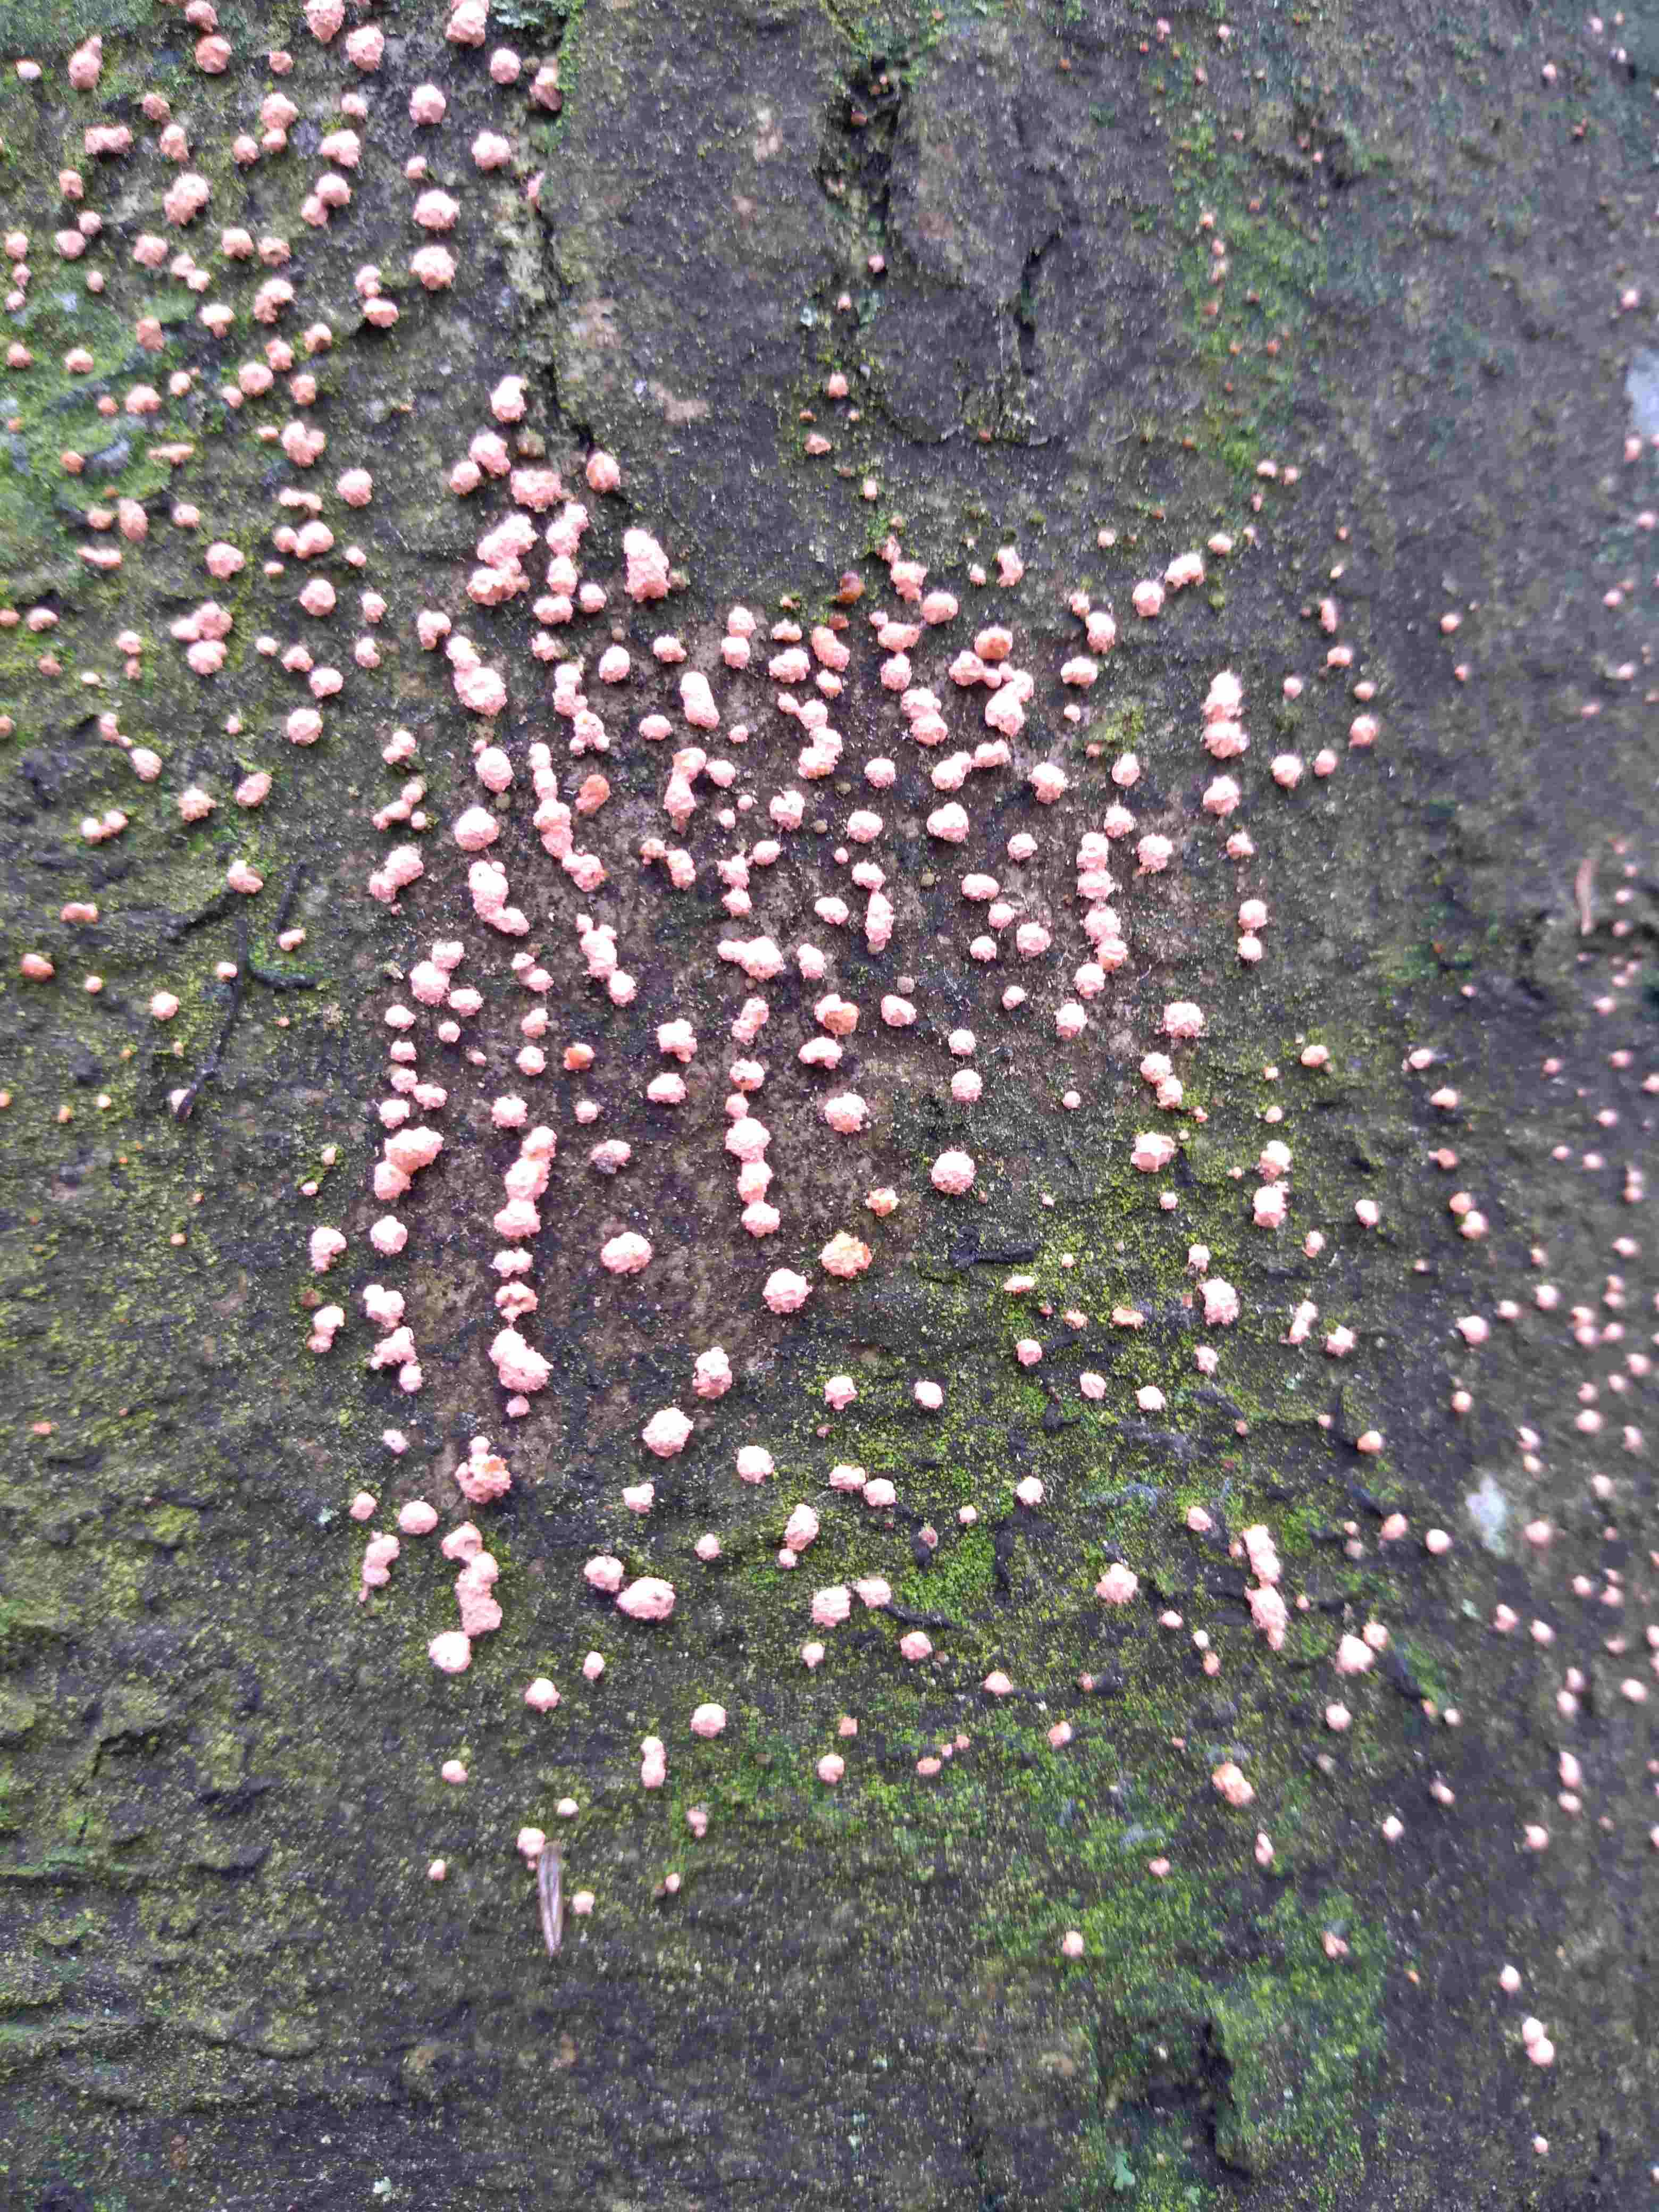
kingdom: Fungi
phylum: Ascomycota
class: Sordariomycetes
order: Hypocreales
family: Nectriaceae
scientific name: Nectriaceae
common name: cinnobersvampfamilien
